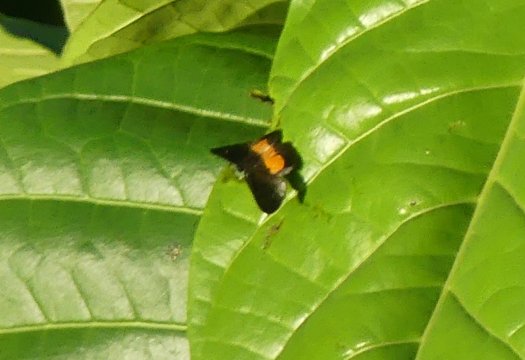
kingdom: Animalia
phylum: Arthropoda
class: Insecta
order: Lepidoptera
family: Riodinidae
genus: Pirascca
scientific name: Pirascca tyriotes
